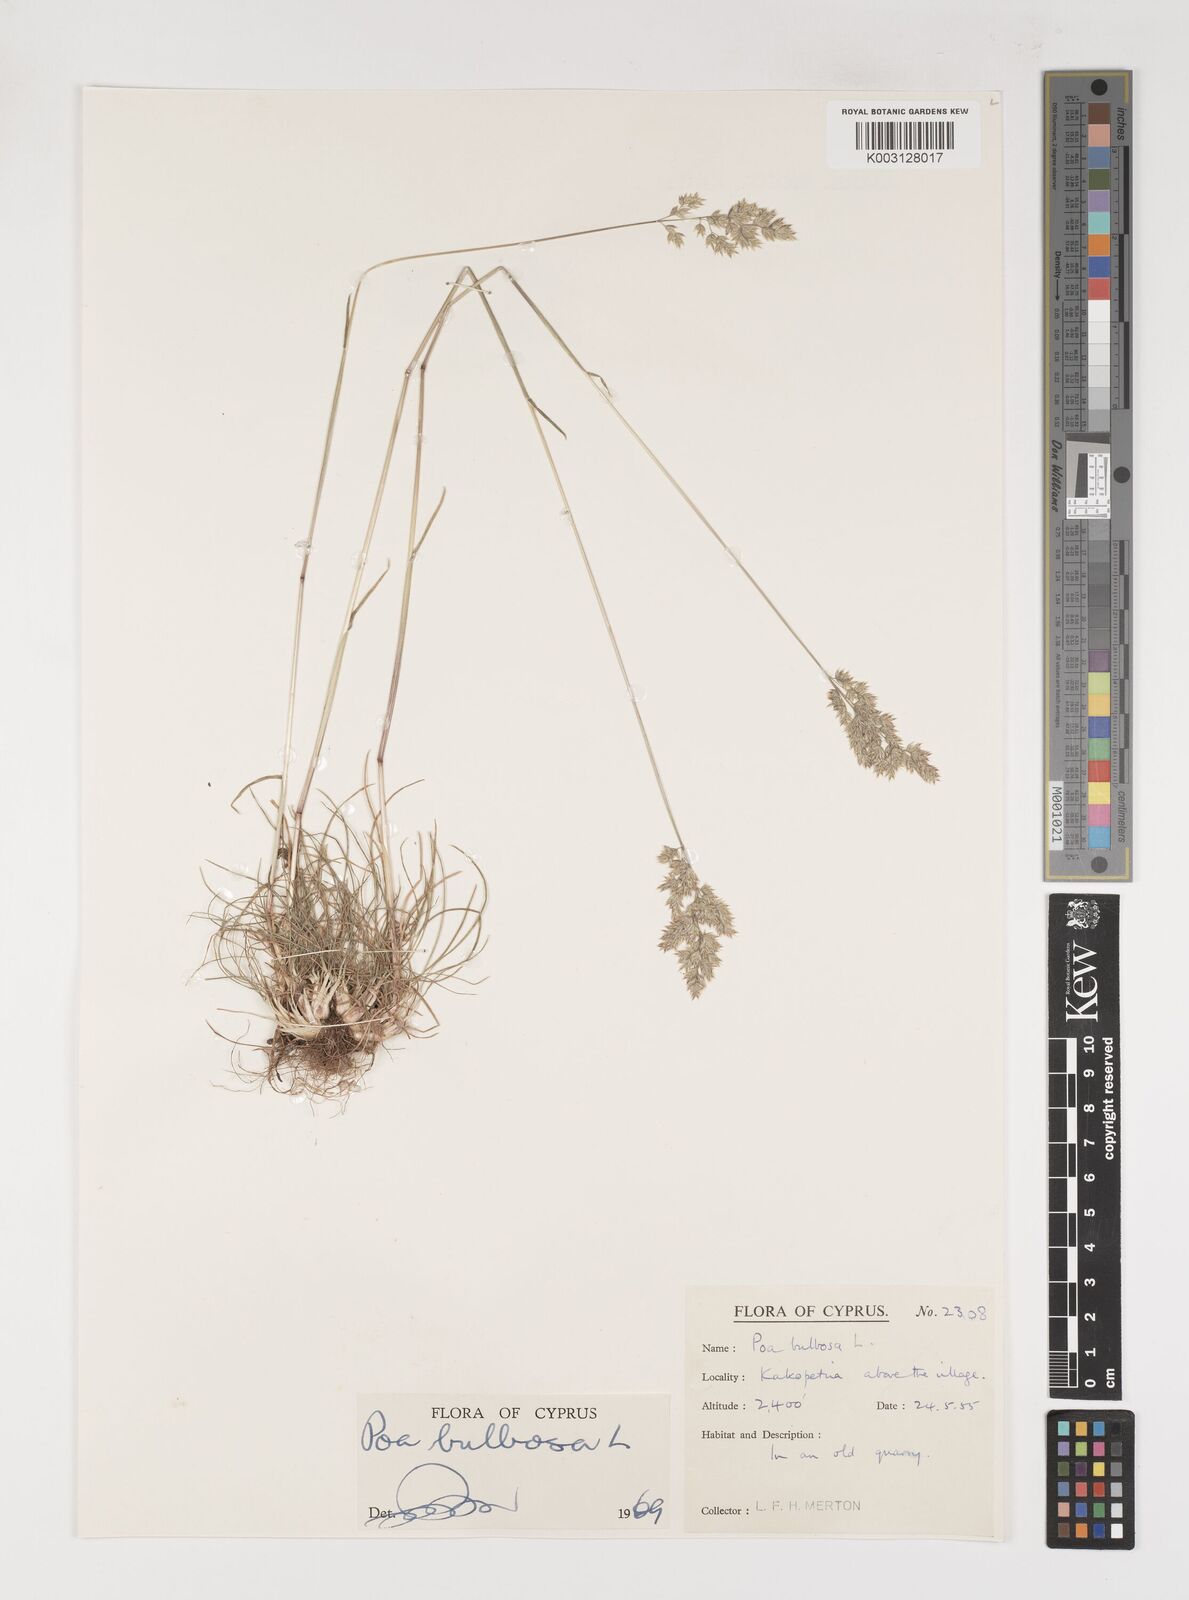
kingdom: Plantae
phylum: Tracheophyta
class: Liliopsida
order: Poales
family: Poaceae
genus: Poa
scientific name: Poa bulbosa
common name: Bulbous bluegrass
